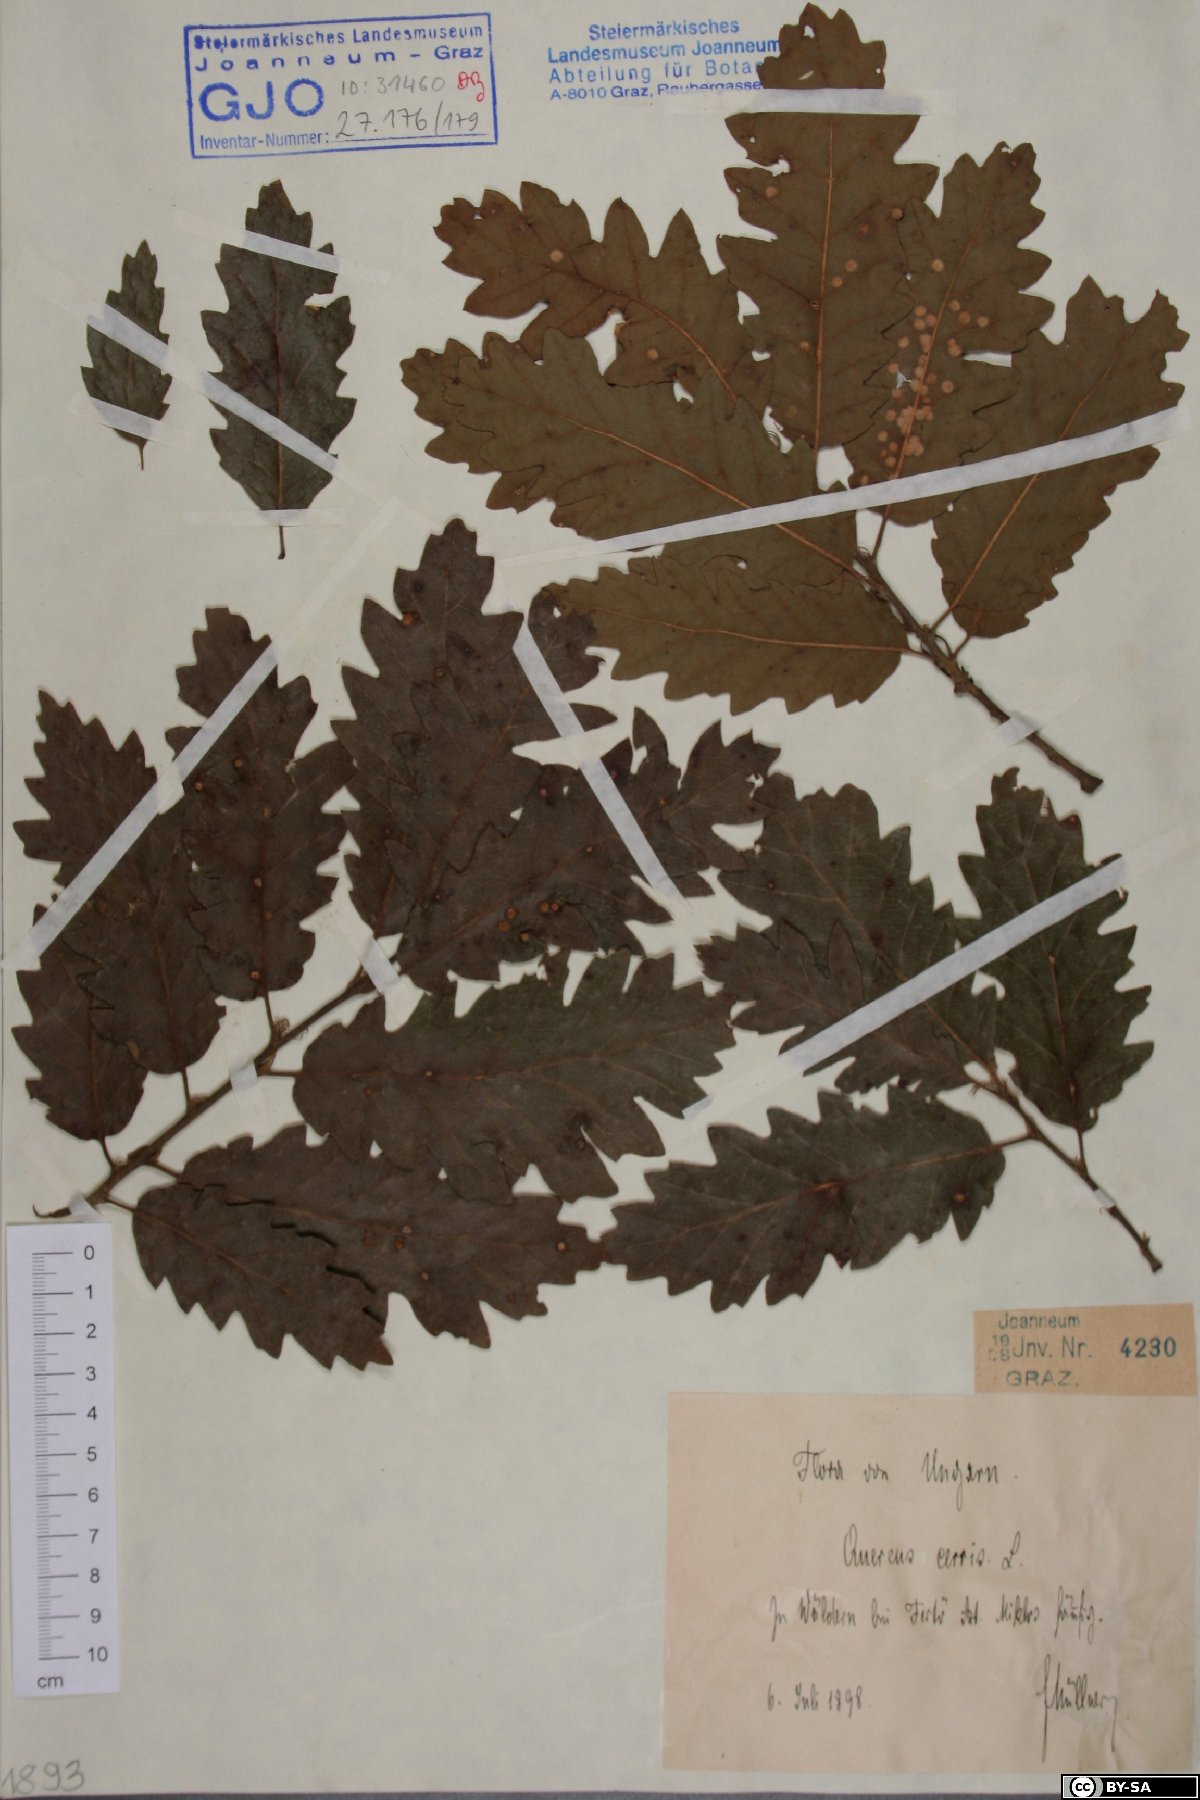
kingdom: Plantae
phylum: Tracheophyta
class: Magnoliopsida
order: Fagales
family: Fagaceae
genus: Quercus
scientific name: Quercus cerris
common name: Turkey oak
